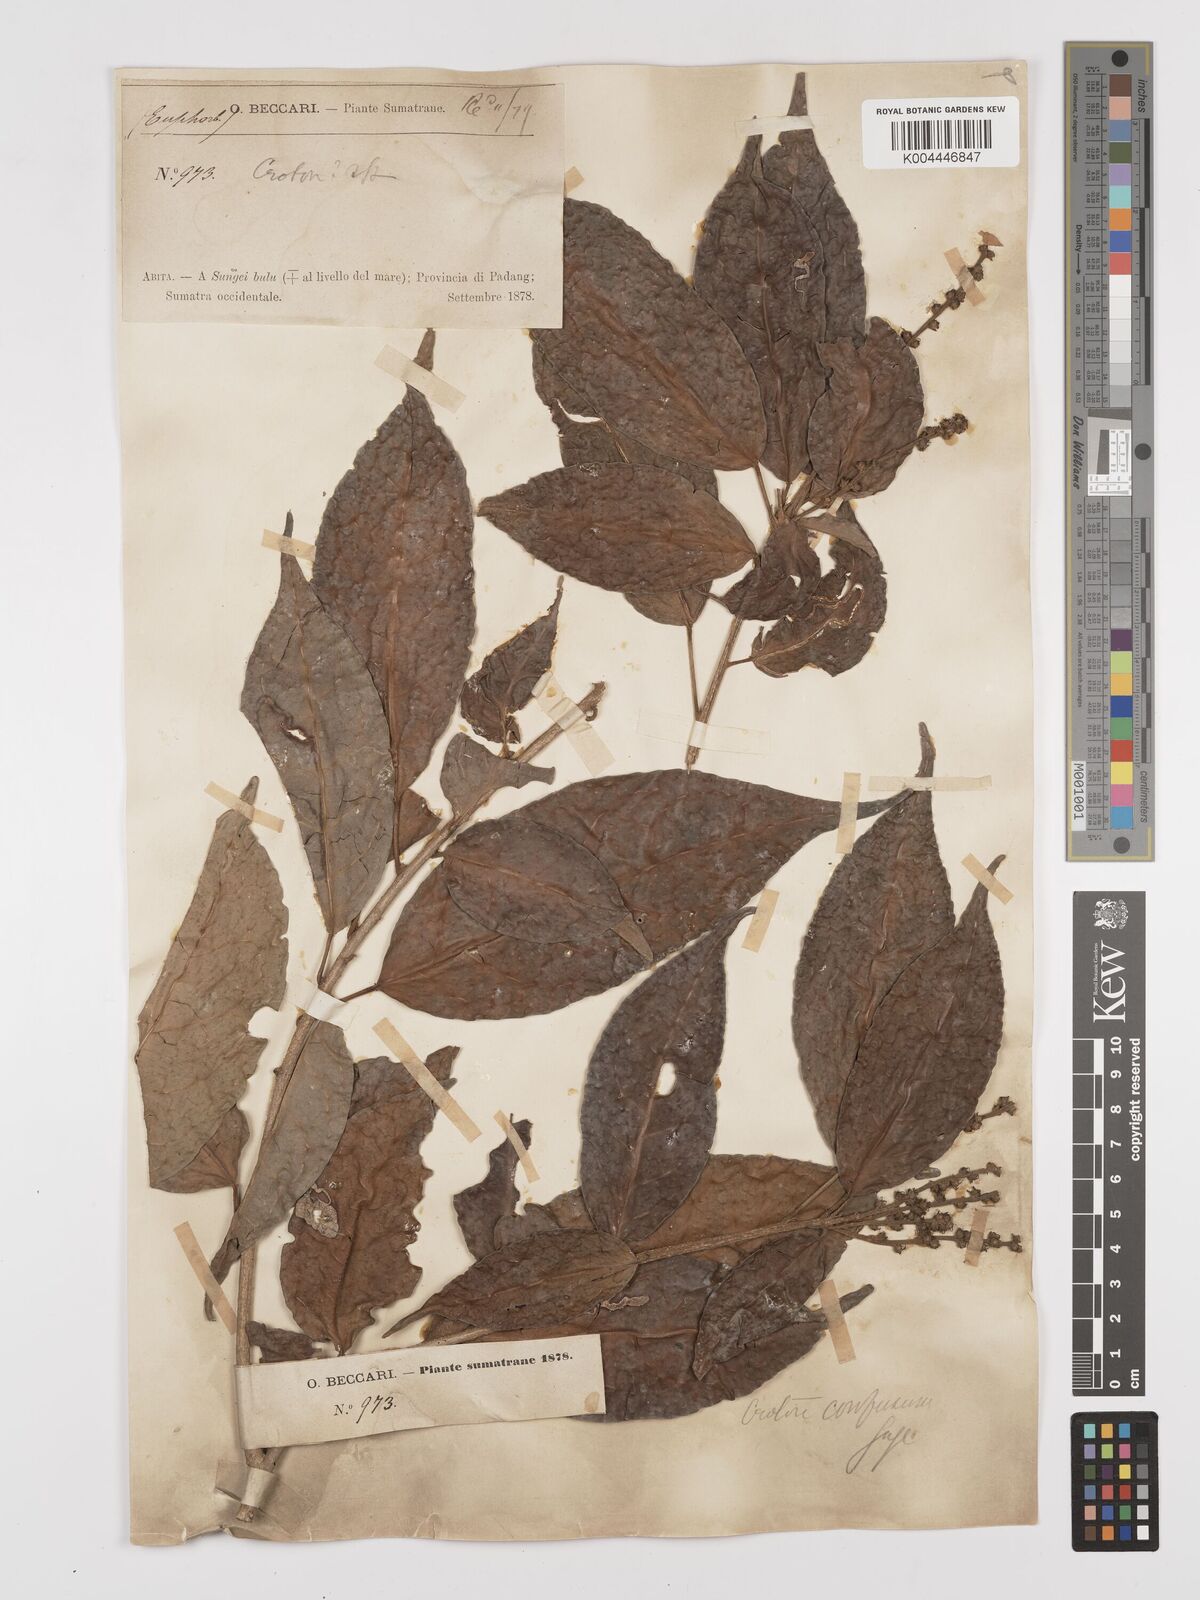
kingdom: Plantae
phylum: Tracheophyta
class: Magnoliopsida
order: Malpighiales
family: Euphorbiaceae
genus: Croton
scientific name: Croton oblongus
